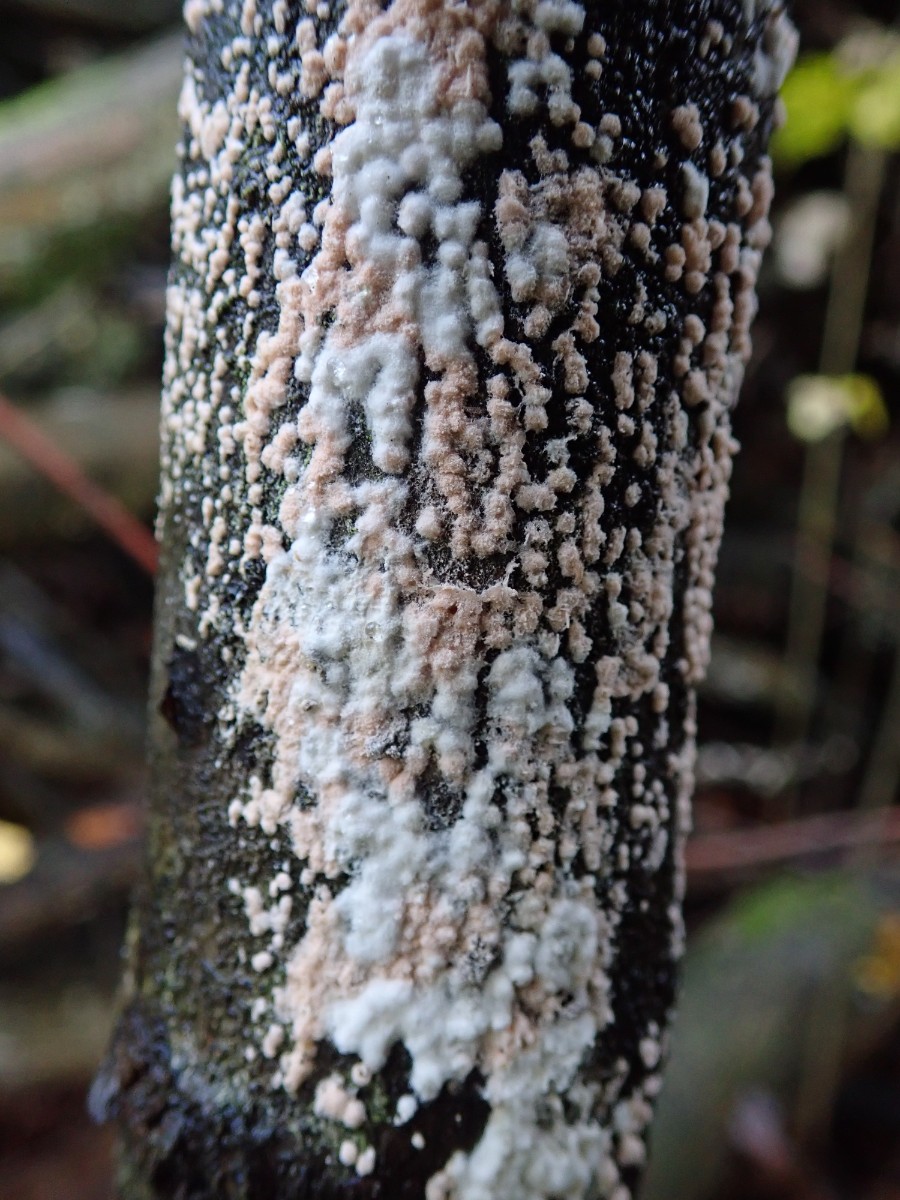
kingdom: Fungi
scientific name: Fungi
